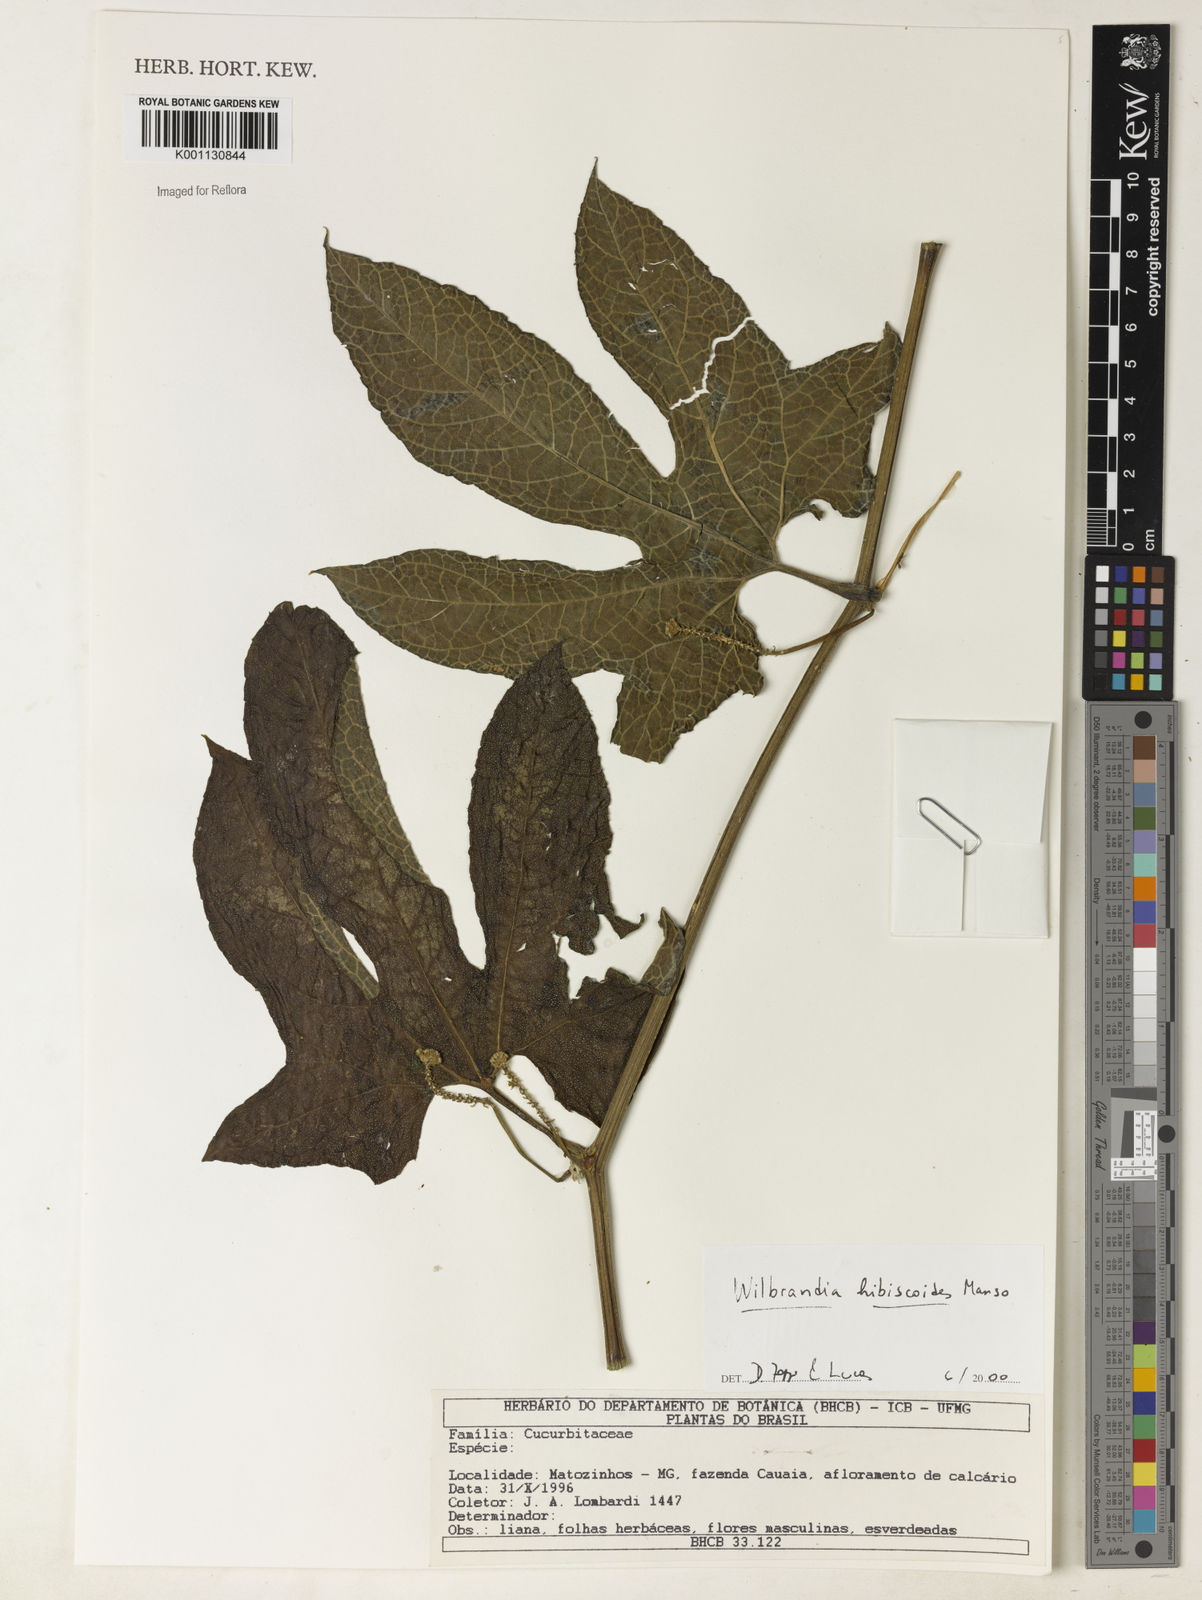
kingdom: Plantae
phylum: Tracheophyta
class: Magnoliopsida
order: Cucurbitales
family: Cucurbitaceae
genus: Wilbrandia
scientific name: Wilbrandia hibiscoides
